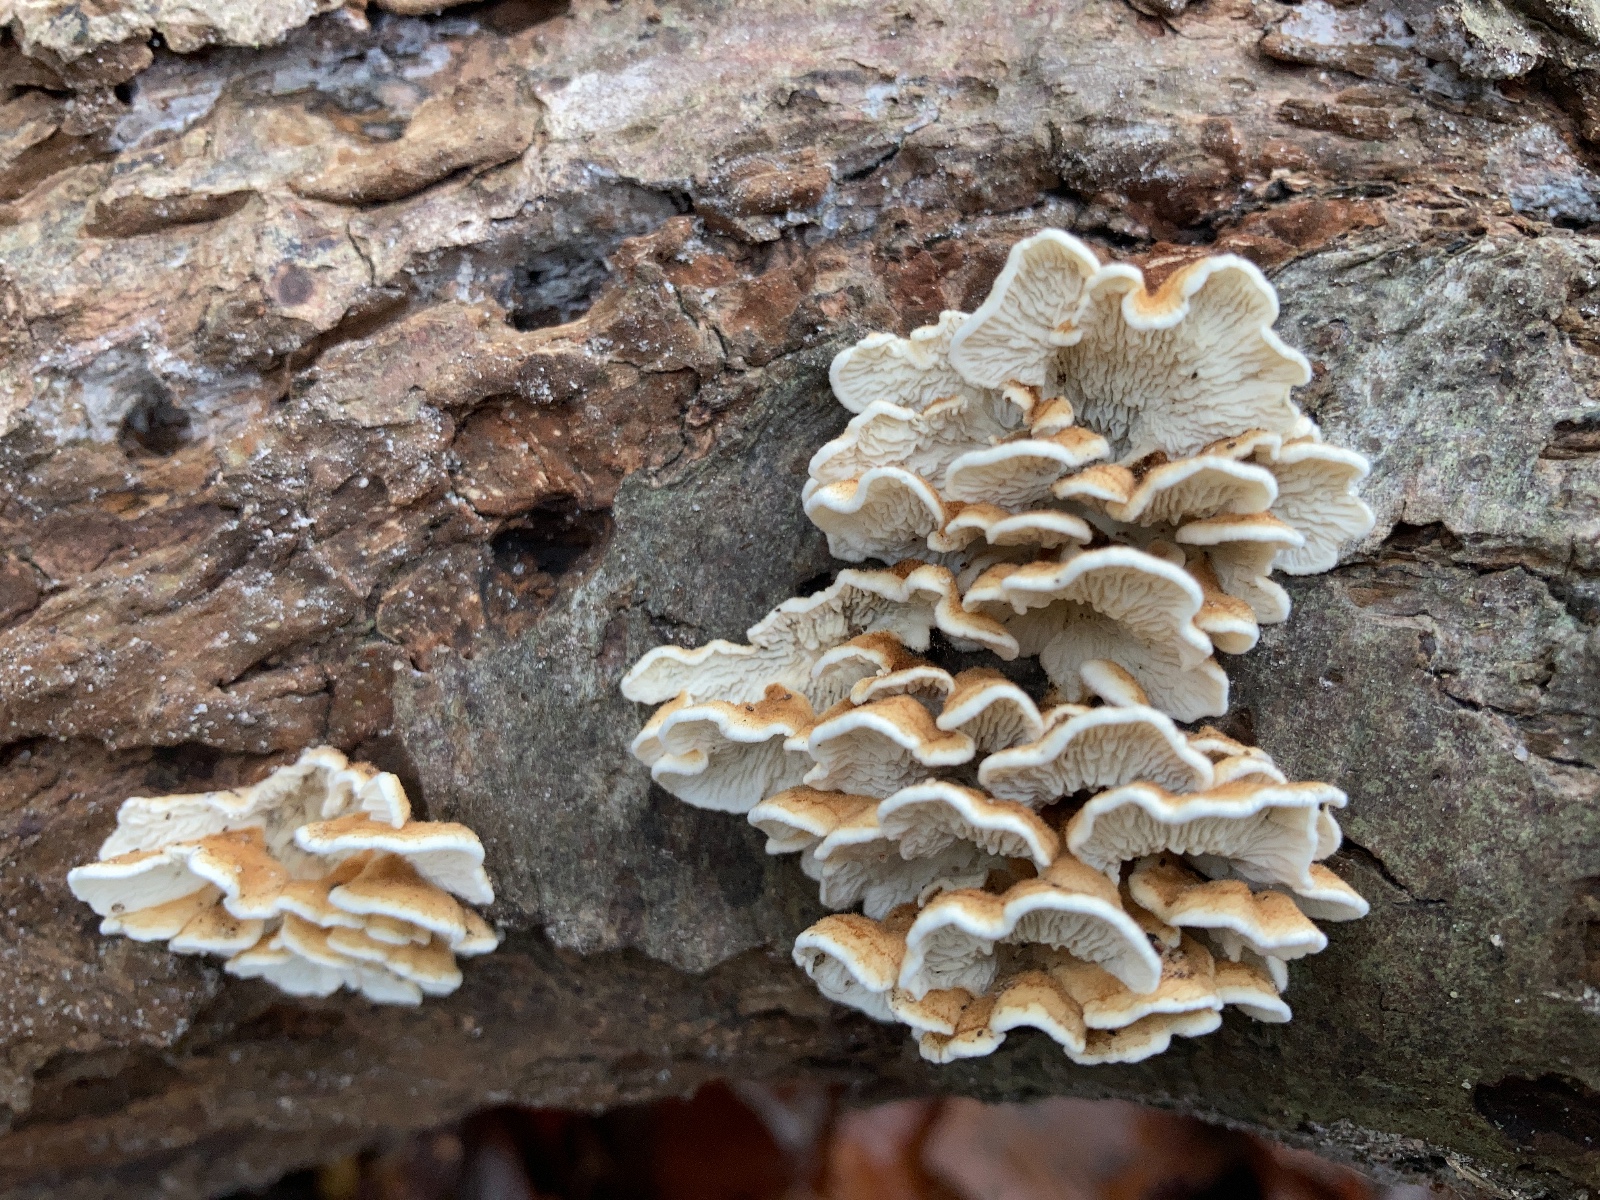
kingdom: Fungi
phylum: Basidiomycota
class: Agaricomycetes
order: Amylocorticiales
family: Amylocorticiaceae
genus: Plicaturopsis
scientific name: Plicaturopsis crispa
